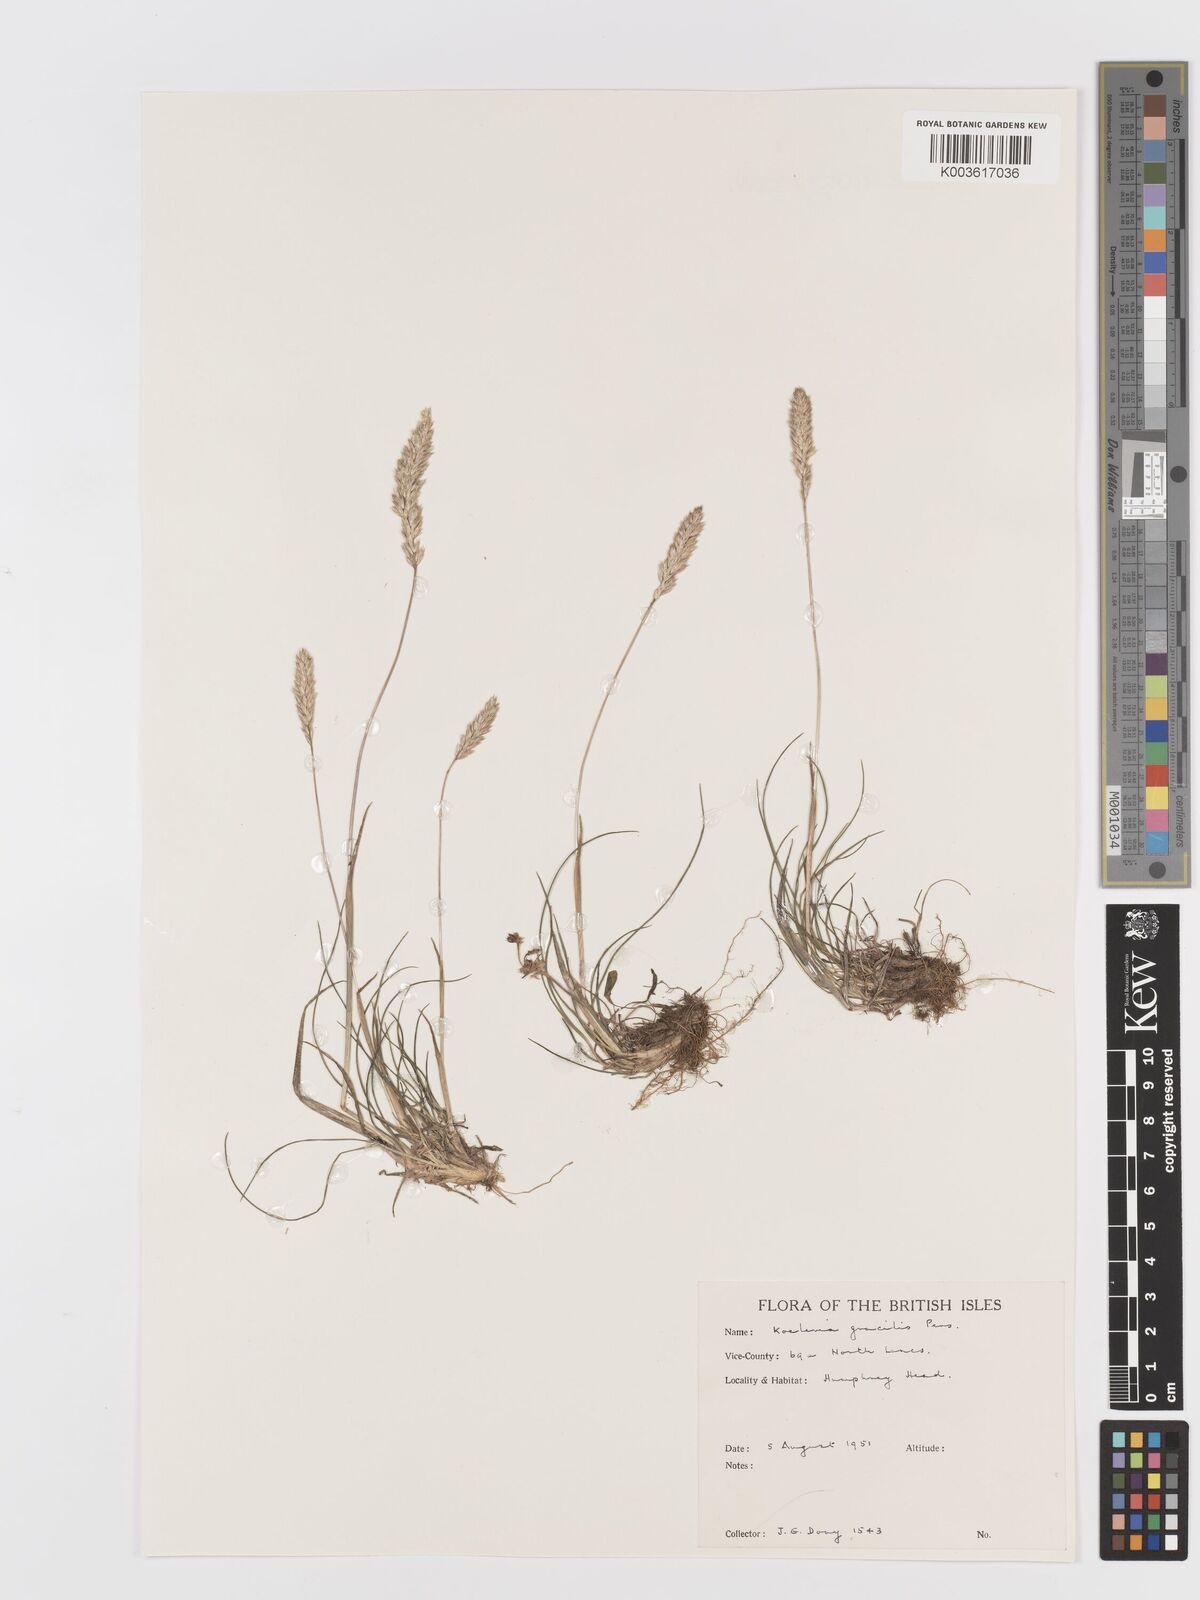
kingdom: Plantae
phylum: Tracheophyta
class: Liliopsida
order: Poales
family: Poaceae
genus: Koeleria
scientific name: Koeleria macrantha
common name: Crested hair-grass
